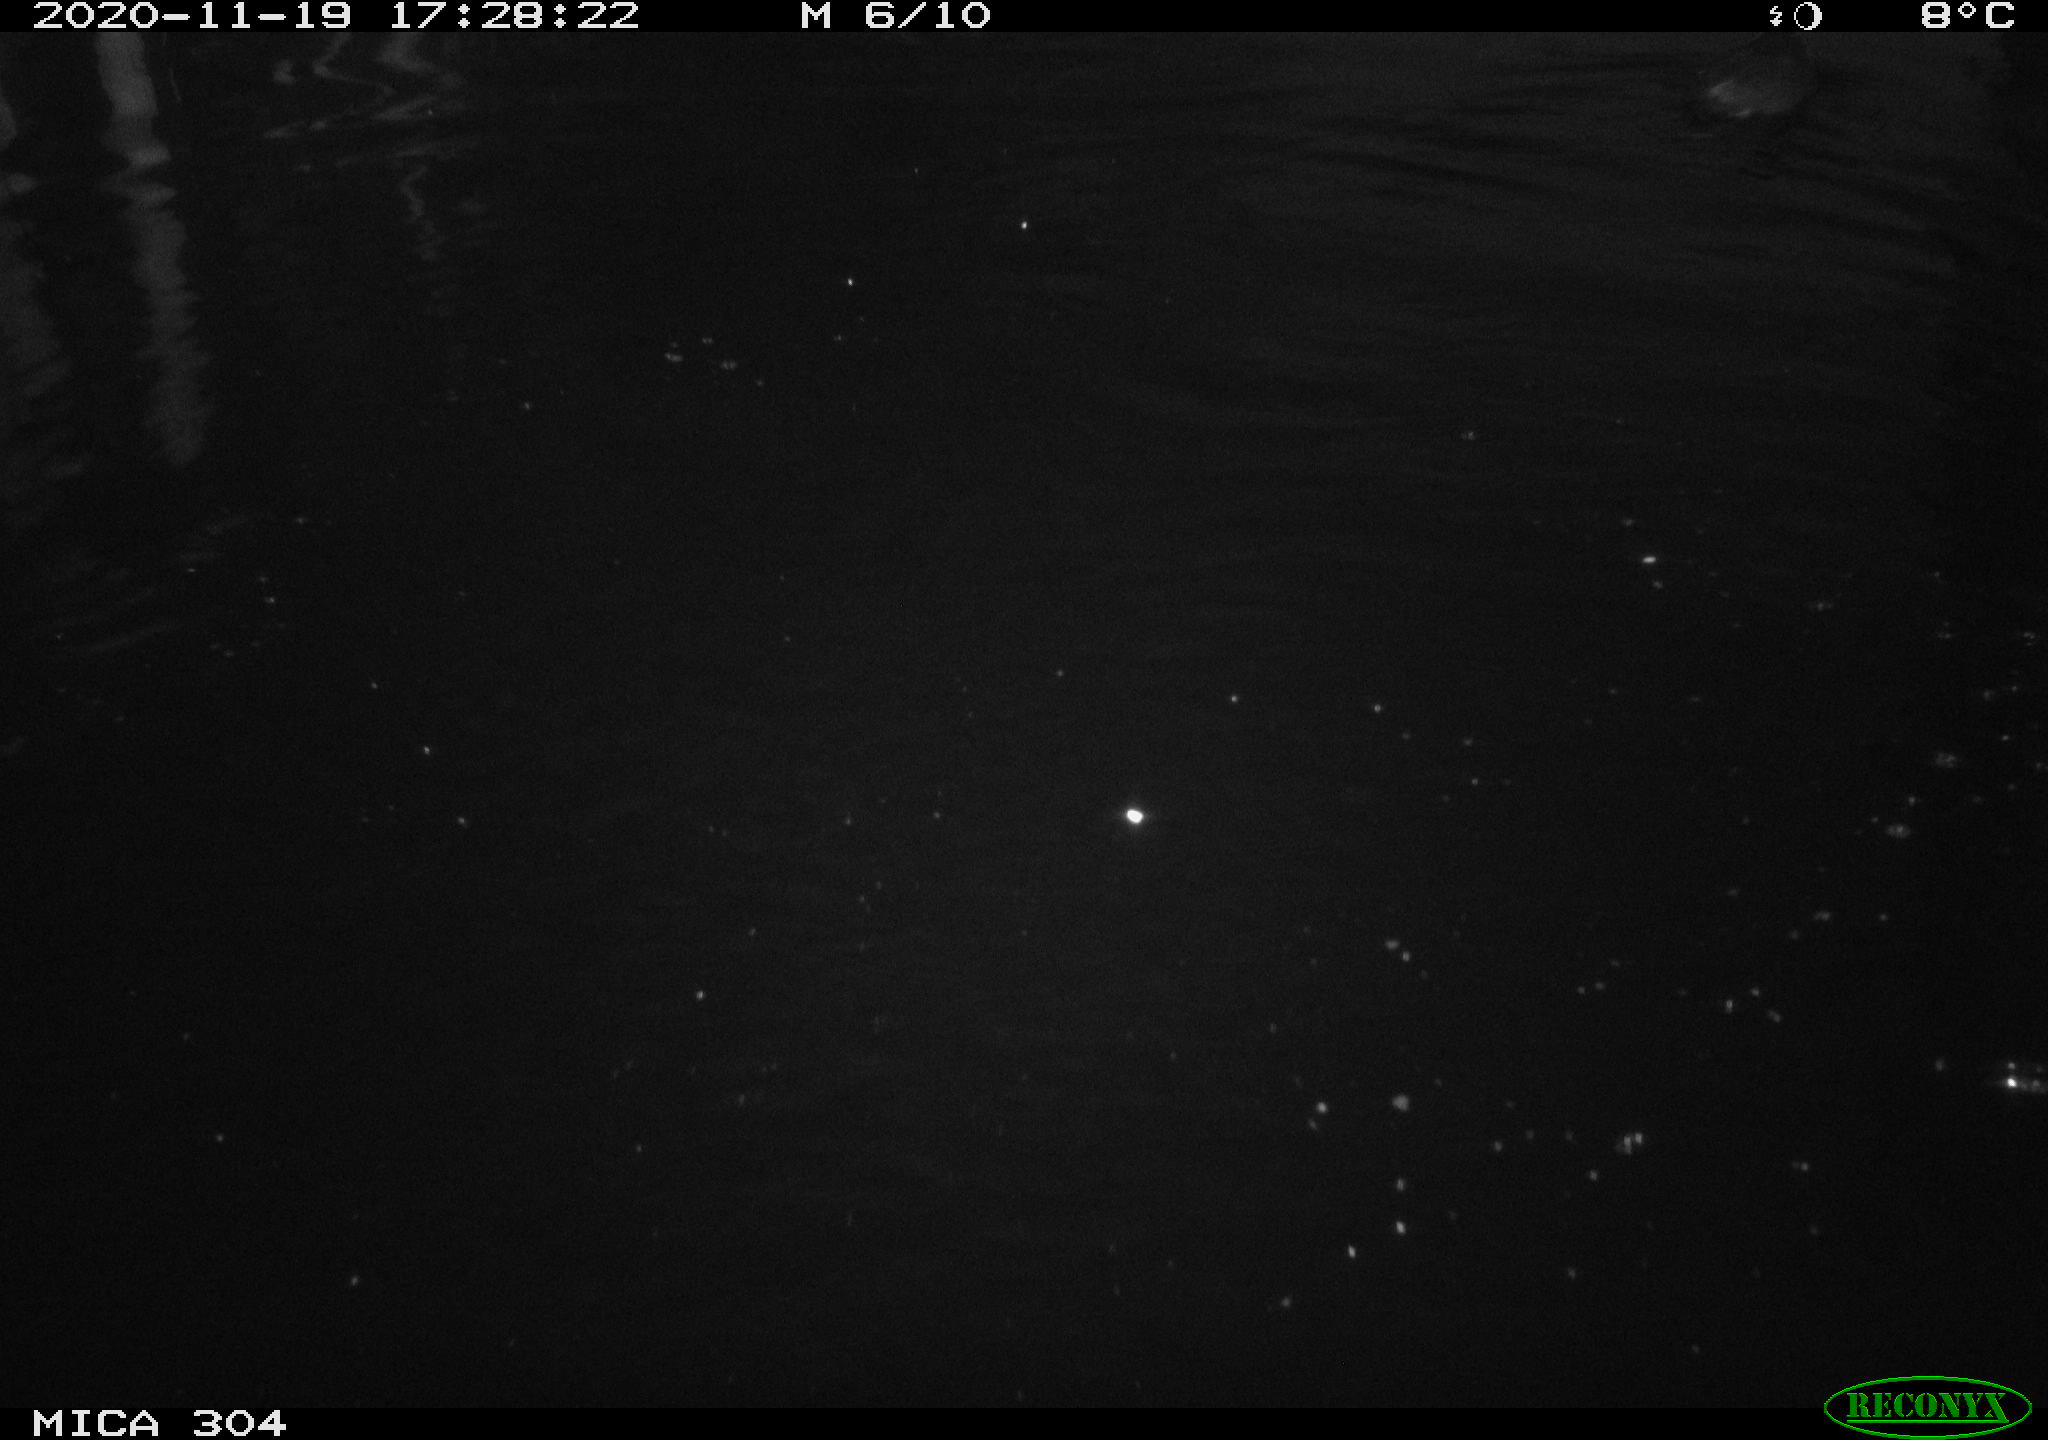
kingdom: Animalia
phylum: Chordata
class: Aves
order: Gruiformes
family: Rallidae
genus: Fulica
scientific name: Fulica atra
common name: Eurasian coot
